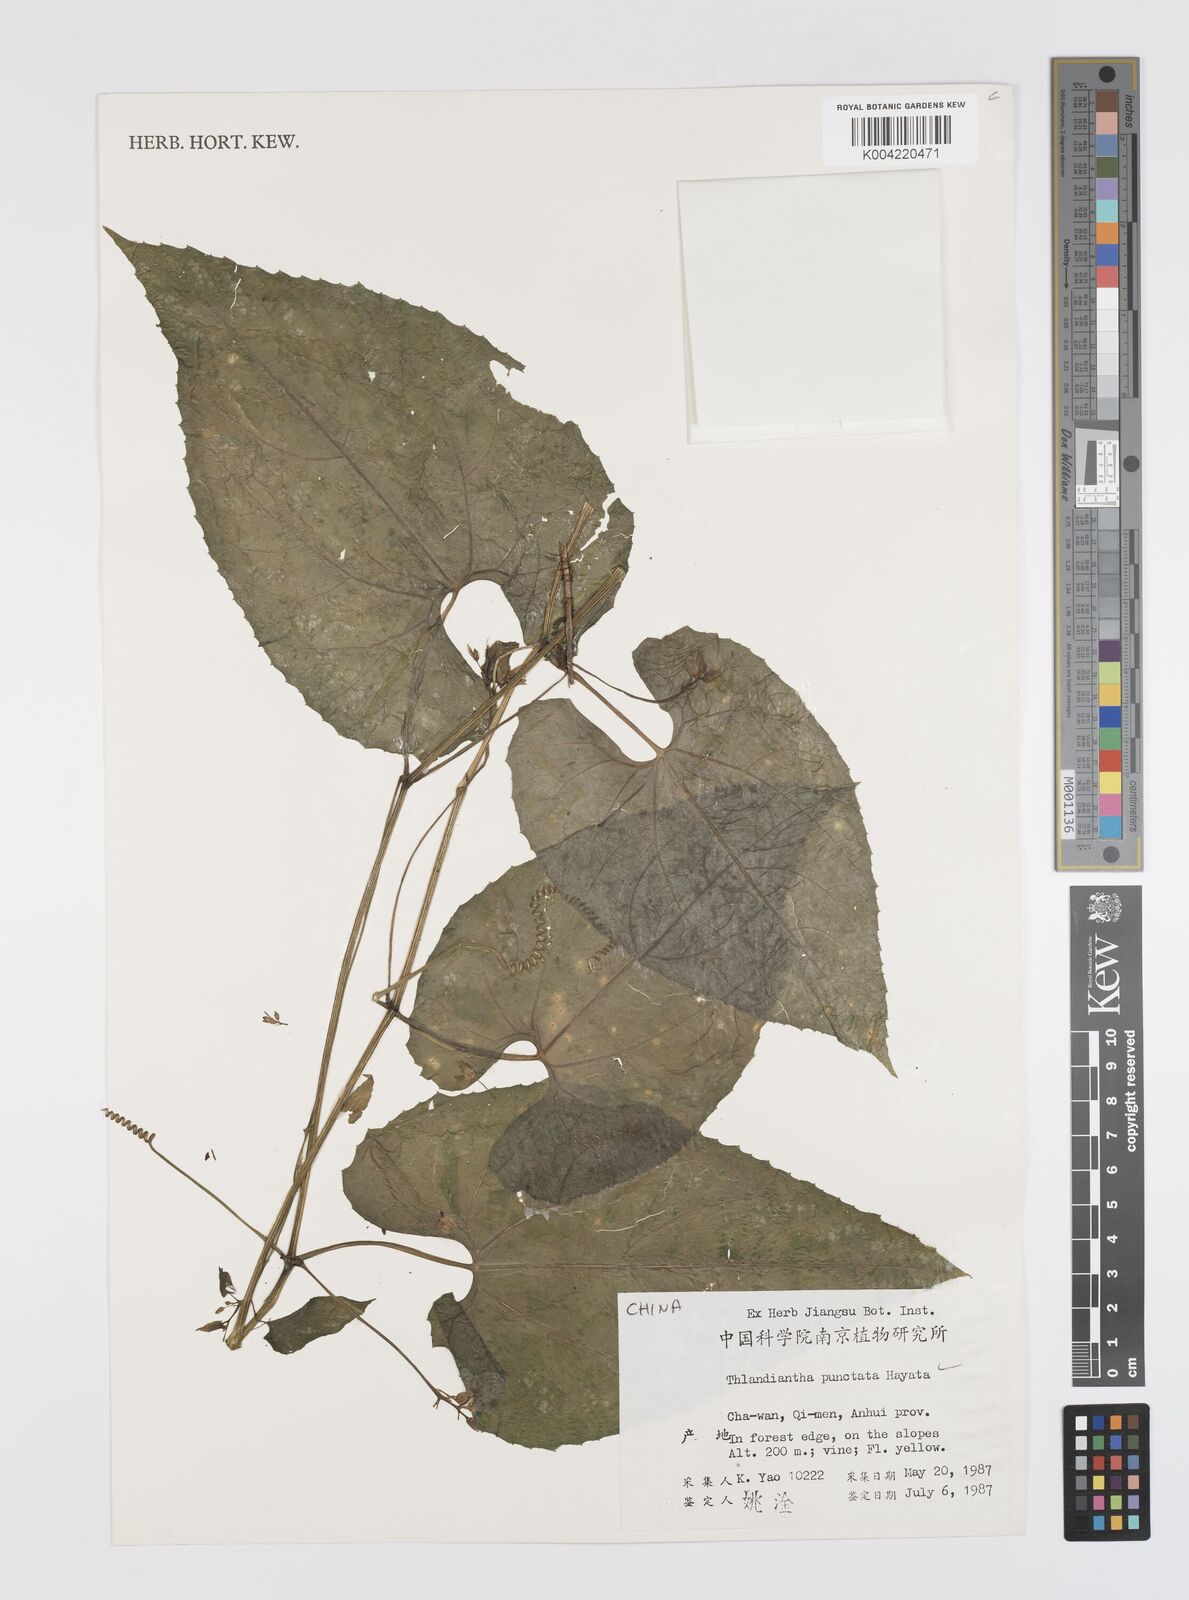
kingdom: Plantae
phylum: Tracheophyta
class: Magnoliopsida
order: Cucurbitales
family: Cucurbitaceae
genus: Thladiantha
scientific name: Thladiantha punctata
